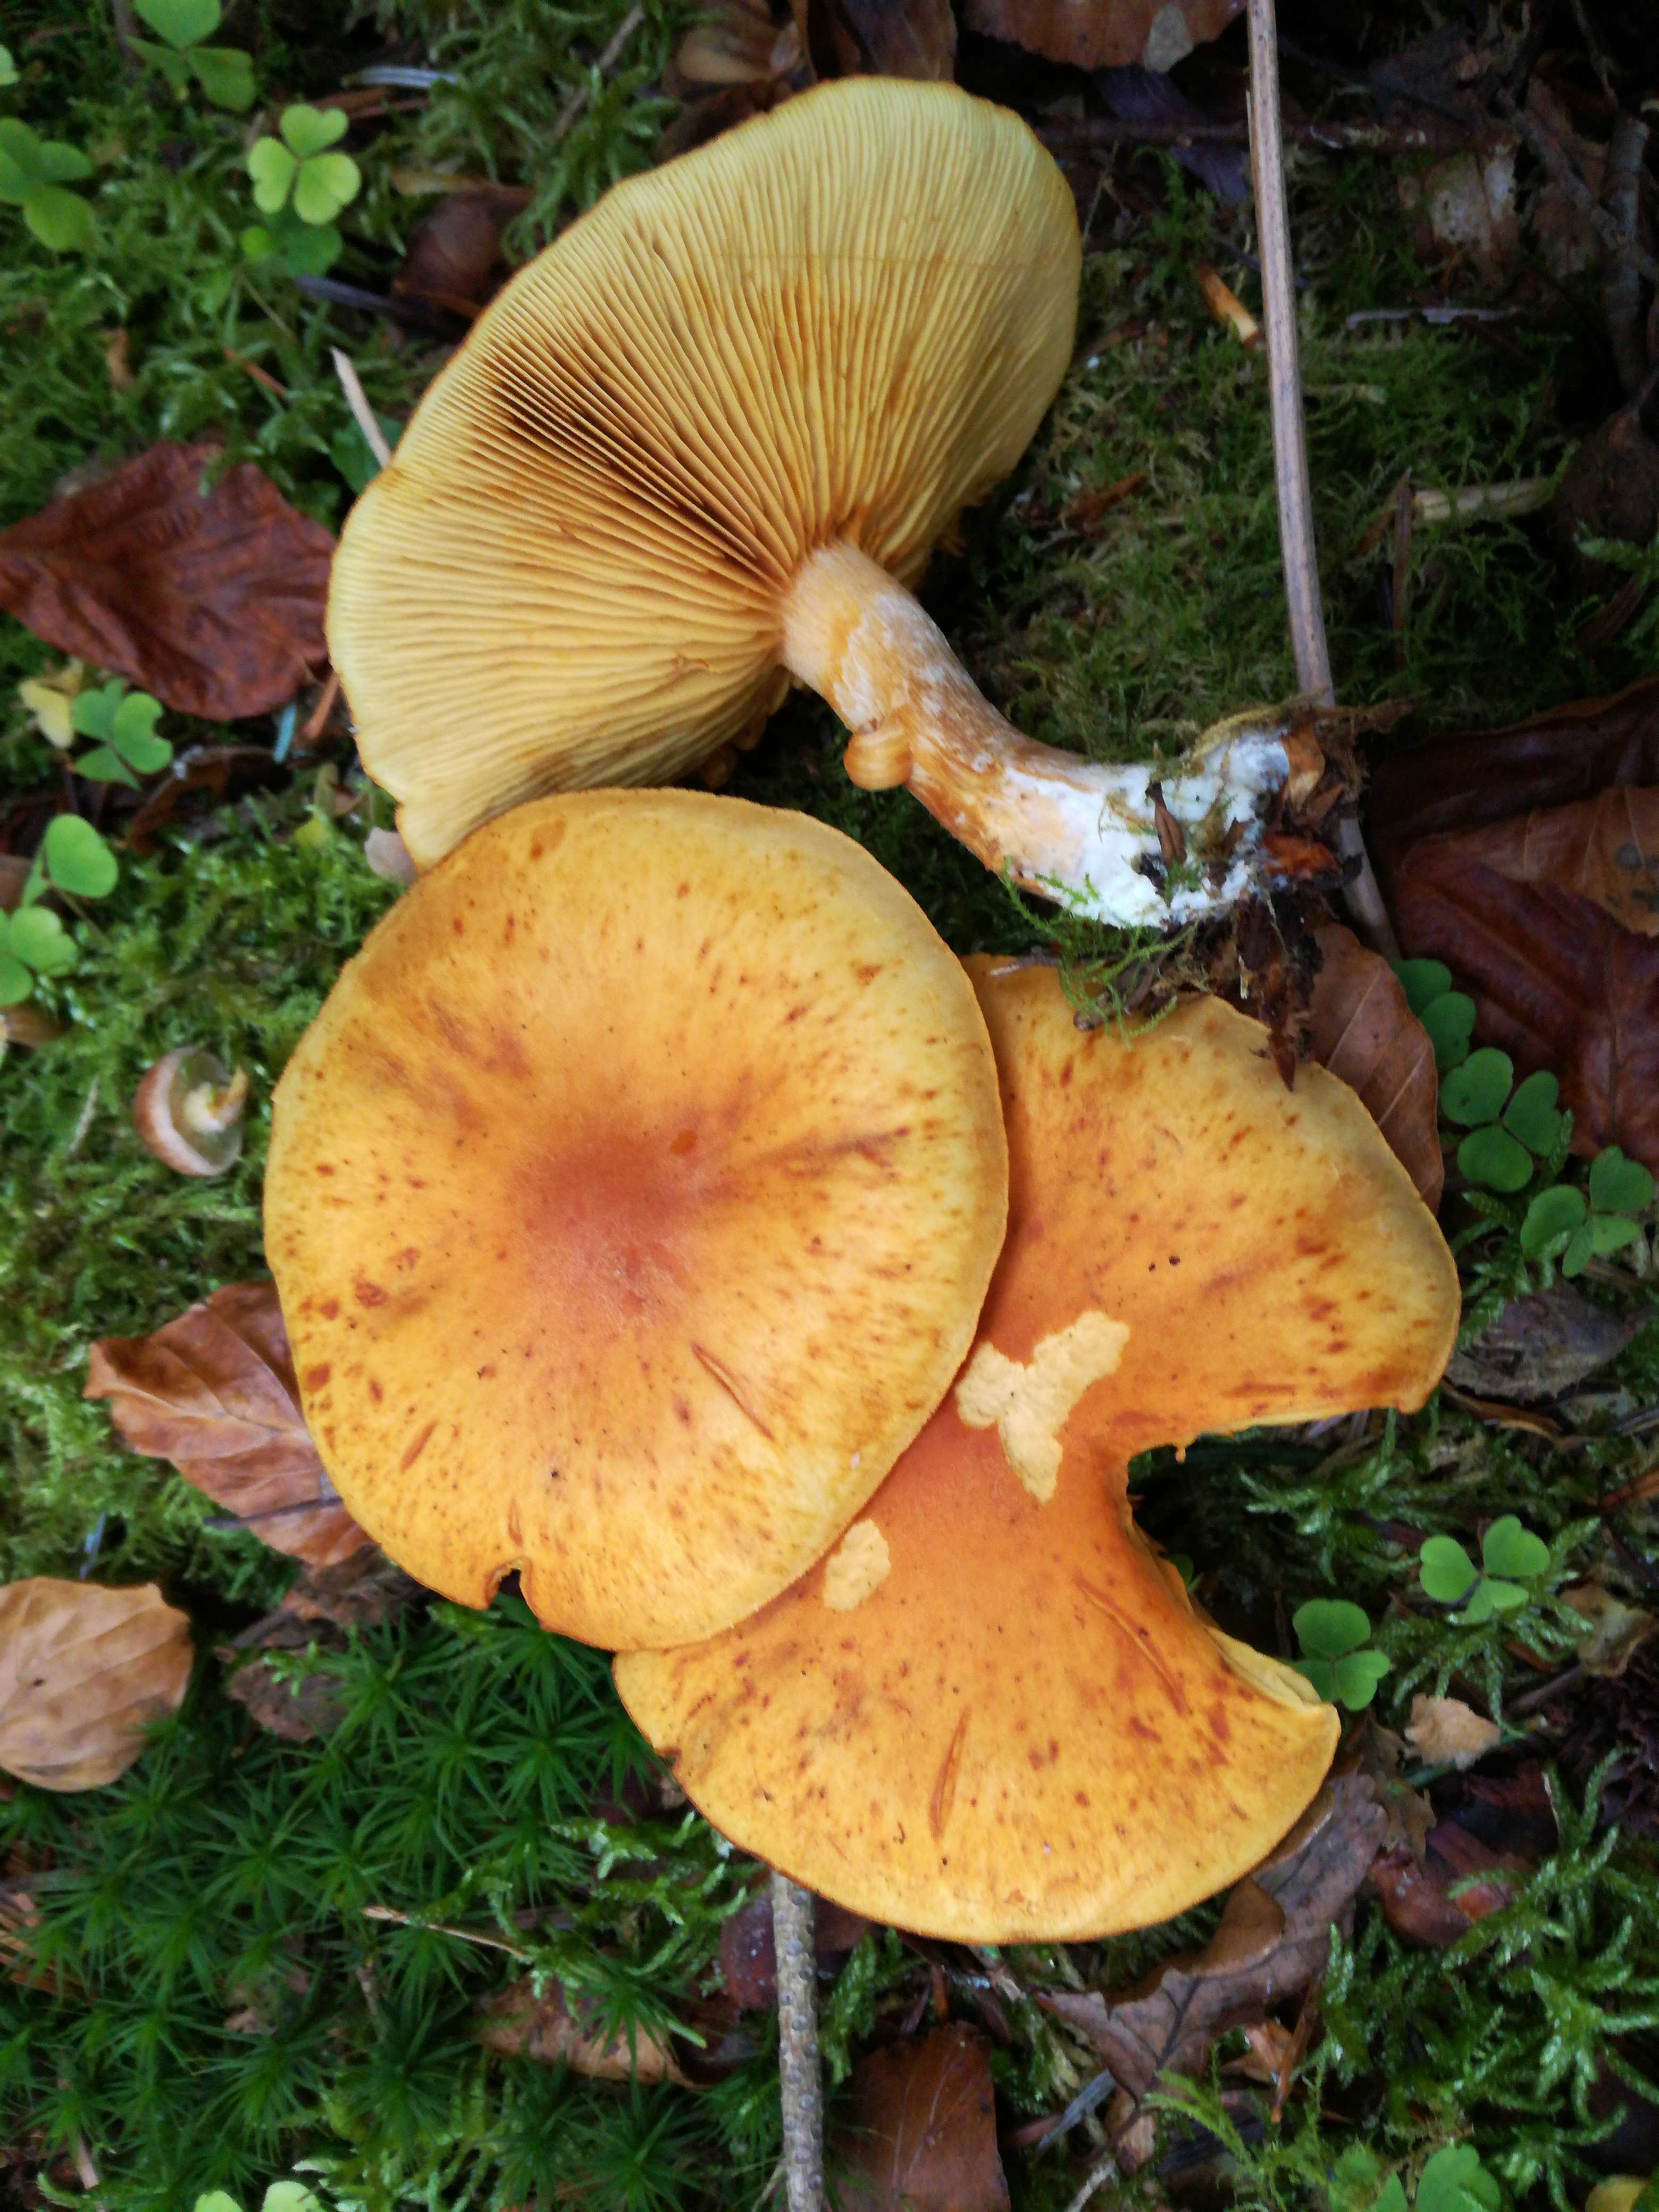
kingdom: Fungi
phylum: Basidiomycota
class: Agaricomycetes
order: Agaricales
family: Hymenogastraceae
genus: Gymnopilus
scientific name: Gymnopilus penetrans
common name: plettet flammehat
